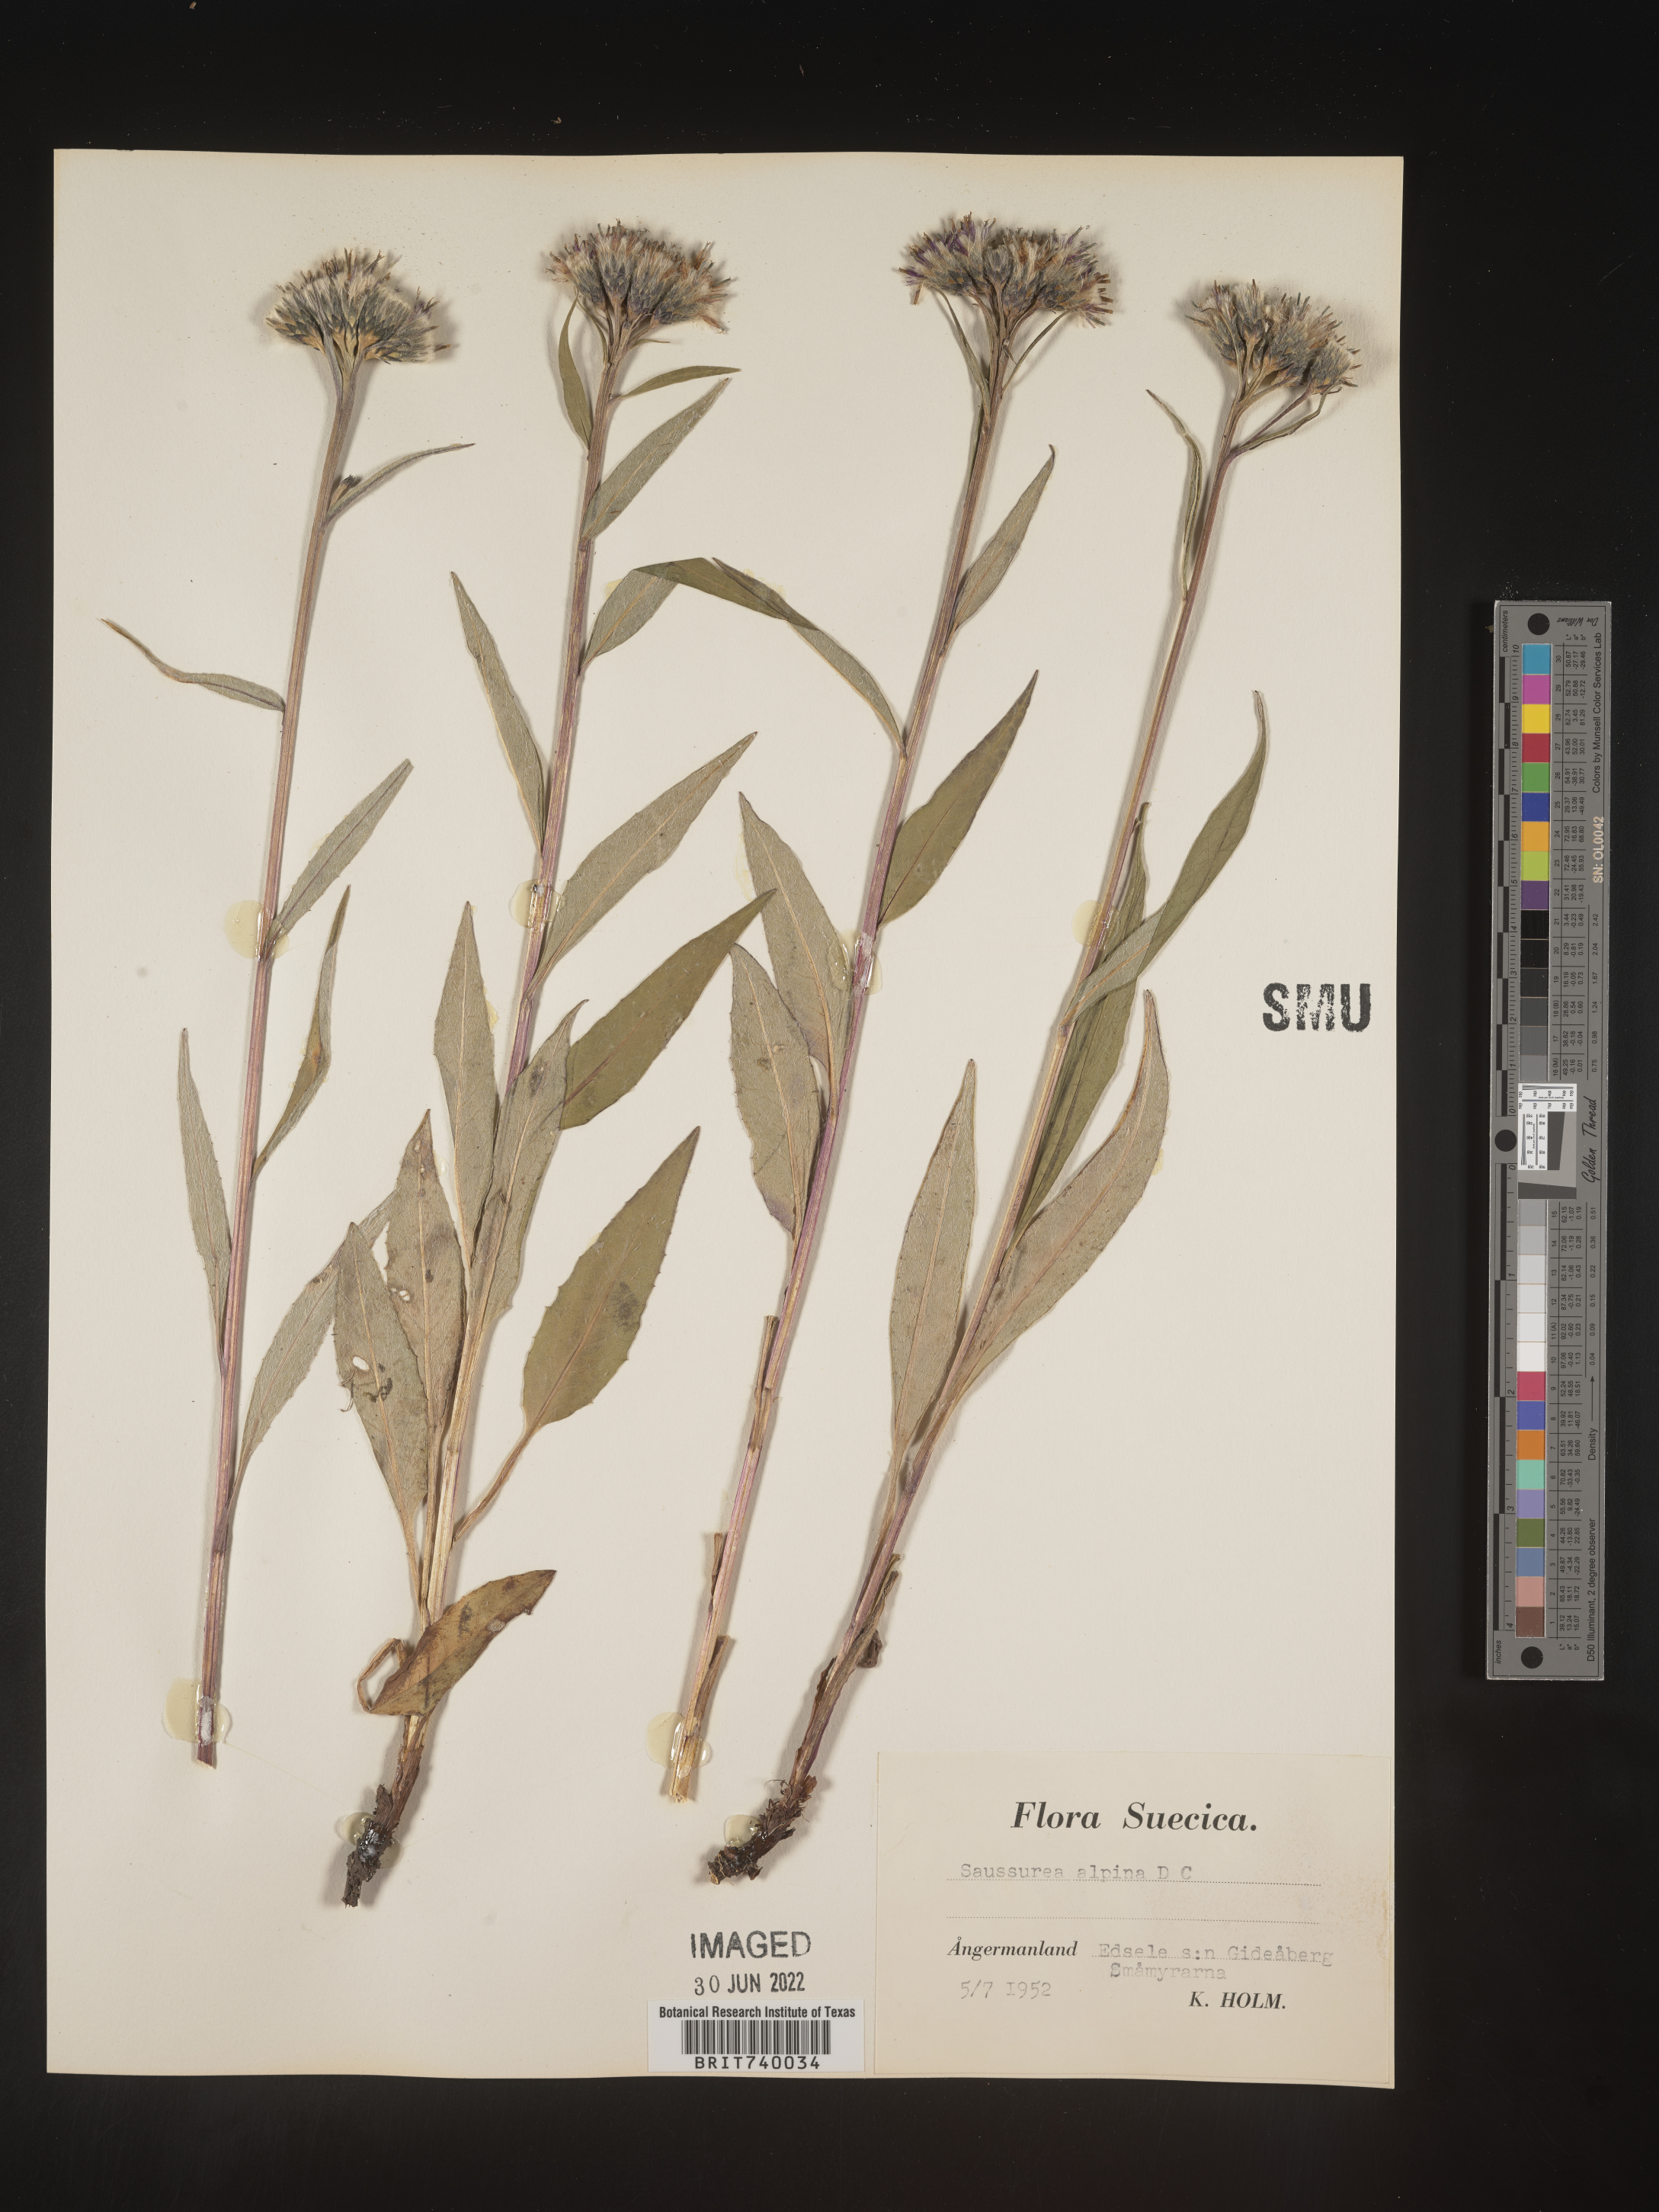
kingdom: Plantae
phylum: Tracheophyta
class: Magnoliopsida
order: Asterales
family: Asteraceae
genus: Saussurea
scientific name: Saussurea
